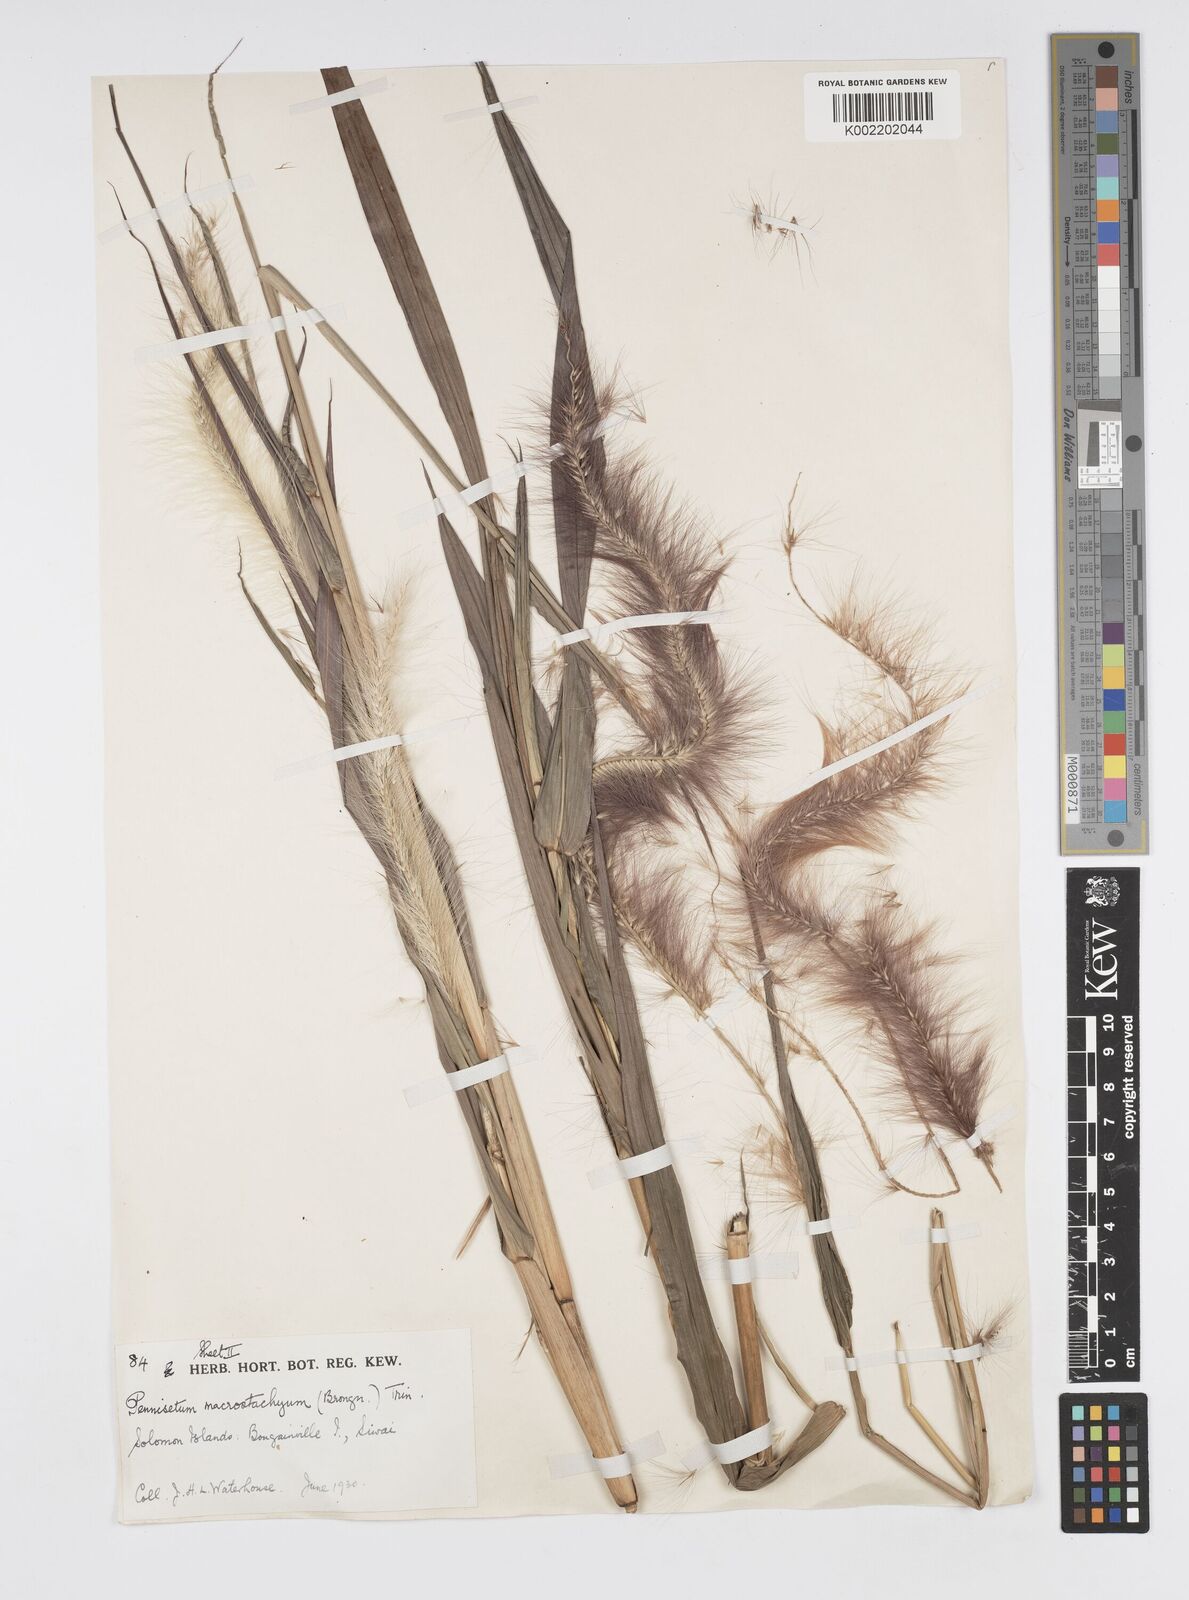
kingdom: Plantae
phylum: Tracheophyta
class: Liliopsida
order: Poales
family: Poaceae
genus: Cenchrus
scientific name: Cenchrus purpureus
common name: Elephant grass
